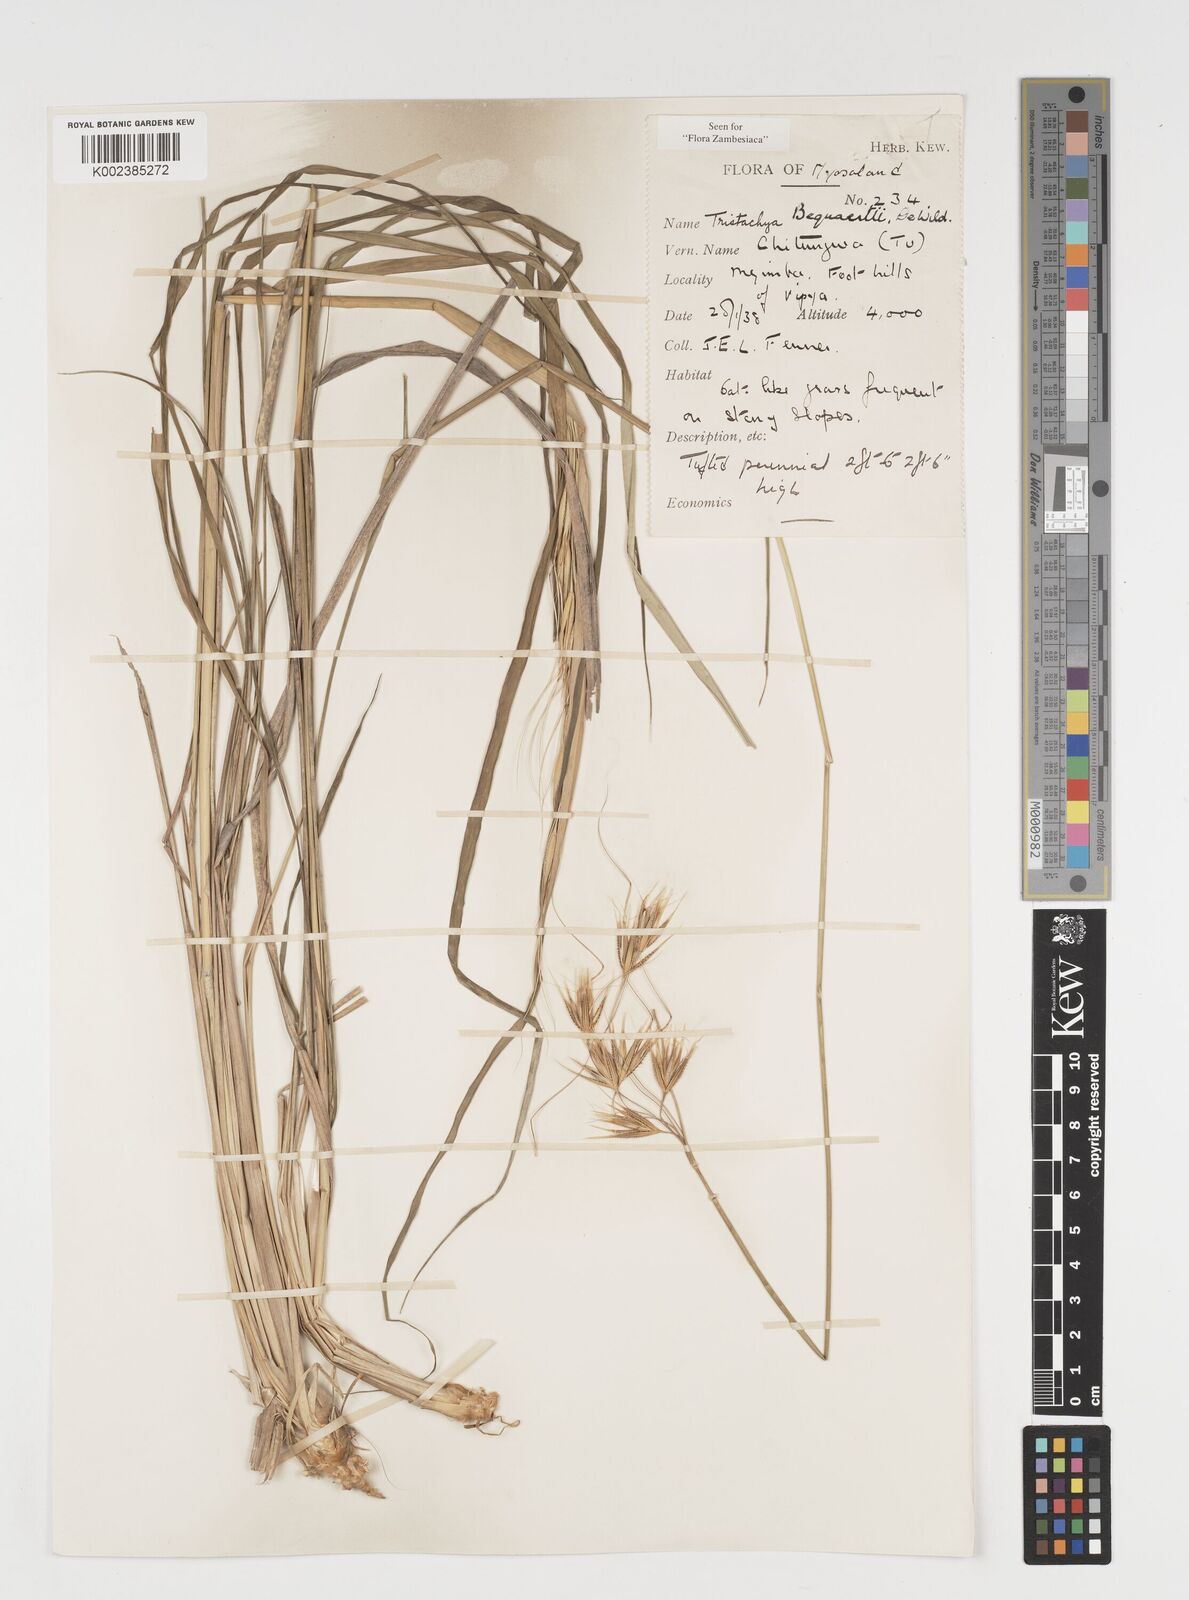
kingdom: Plantae
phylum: Tracheophyta
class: Liliopsida
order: Poales
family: Poaceae
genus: Tristachya
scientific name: Tristachya bequaertii
